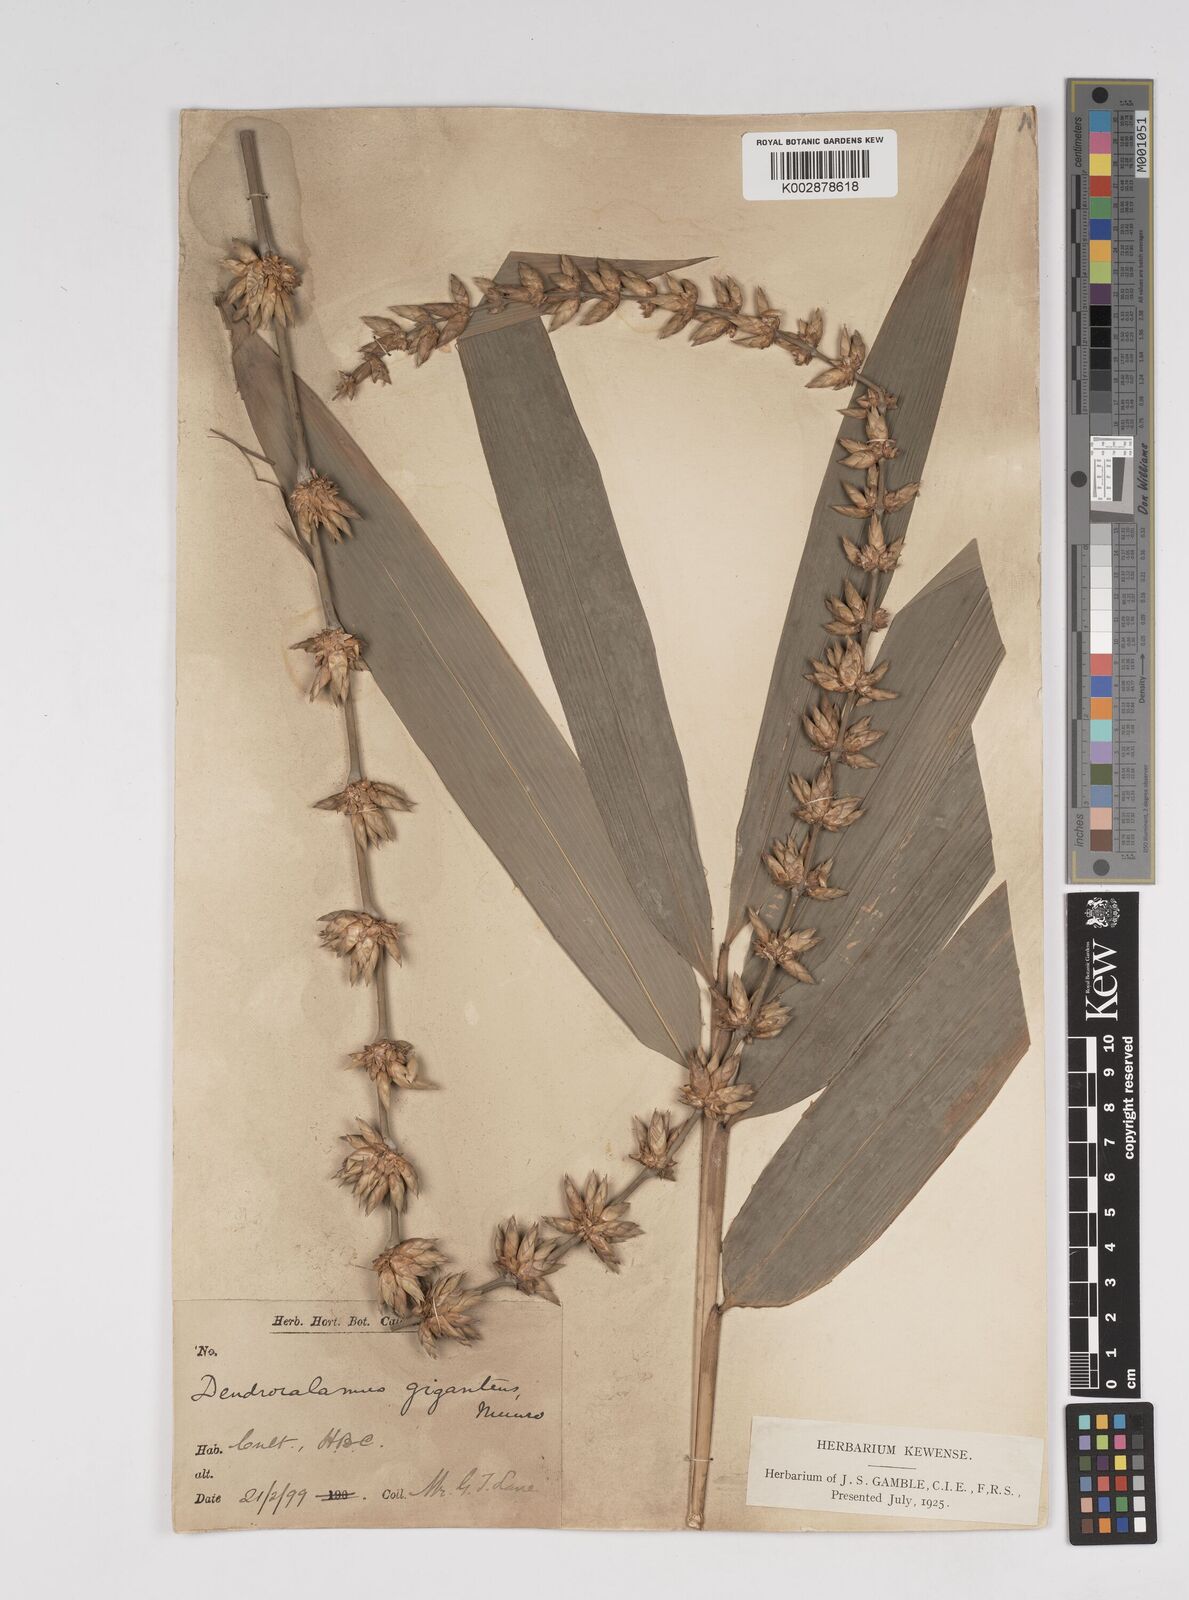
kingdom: Plantae
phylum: Tracheophyta
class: Liliopsida
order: Poales
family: Poaceae
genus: Dendrocalamus
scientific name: Dendrocalamus giganteus
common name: Giant bamboo
